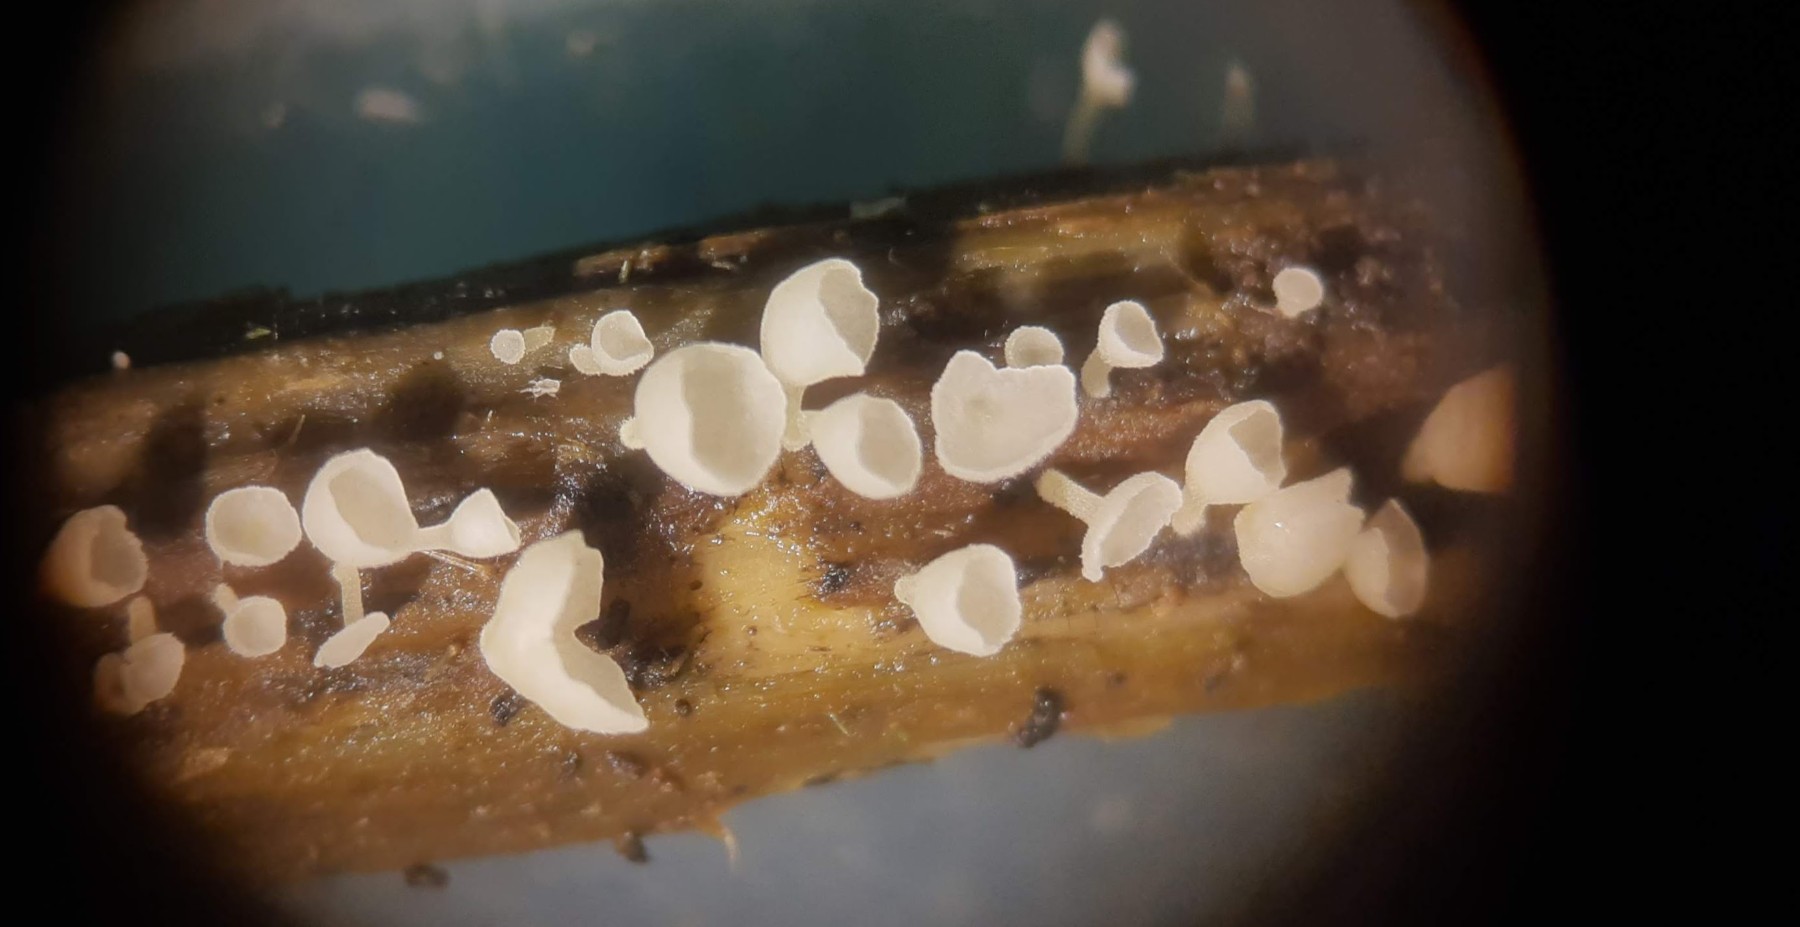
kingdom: Fungi
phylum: Basidiomycota
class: Agaricomycetes
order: Agaricales
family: Marasmiaceae
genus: Calyptella
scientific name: Calyptella capula
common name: hvidlig nældehue
